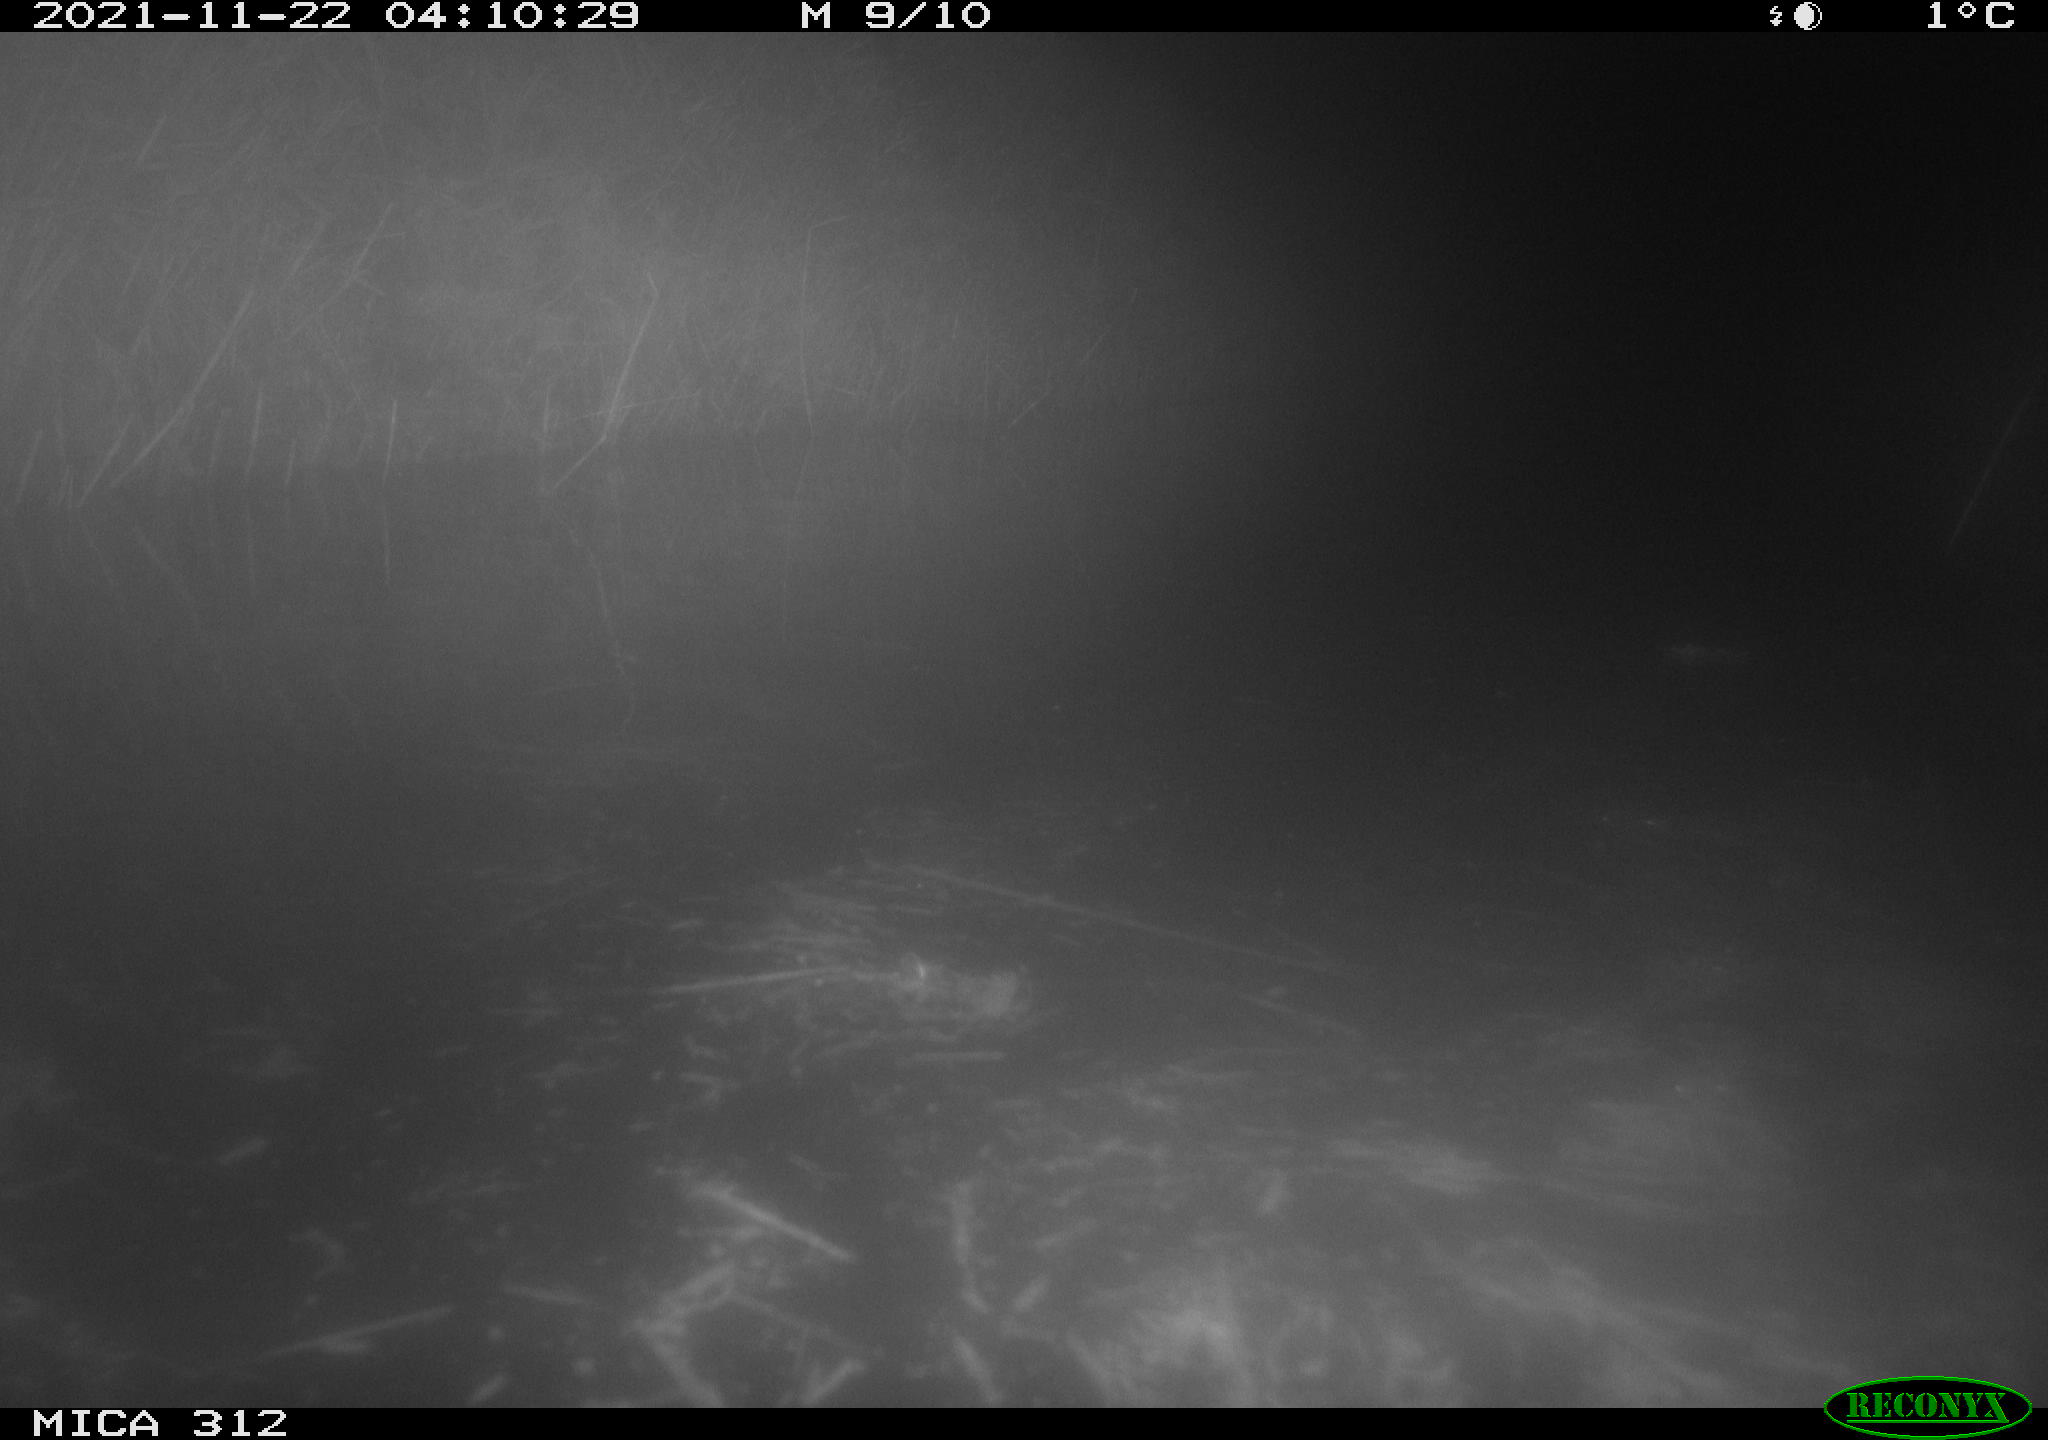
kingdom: Animalia
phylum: Chordata
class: Mammalia
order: Rodentia
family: Muridae
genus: Rattus
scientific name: Rattus norvegicus
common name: Brown rat
